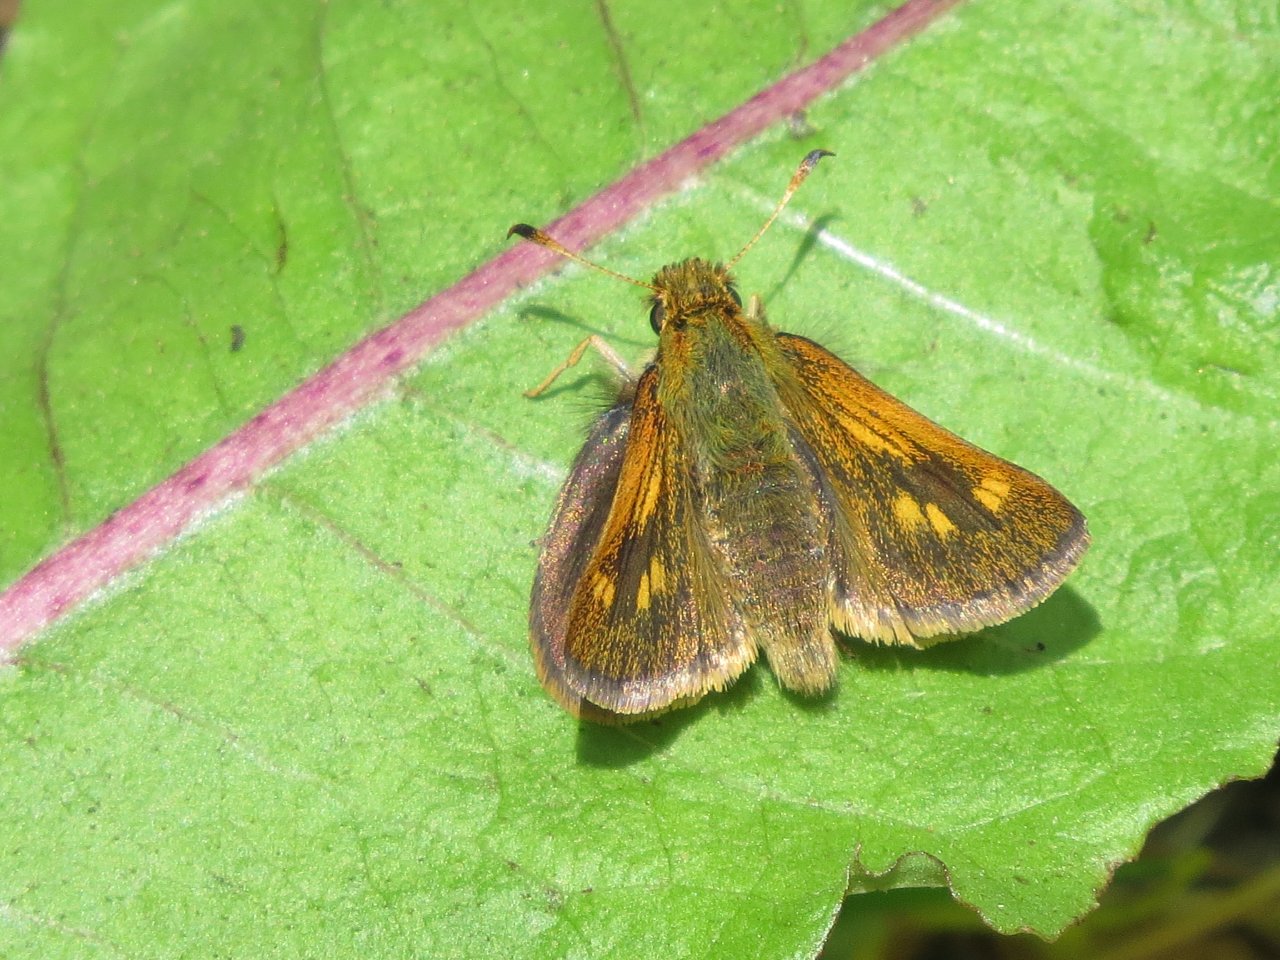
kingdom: Animalia
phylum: Arthropoda
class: Insecta
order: Lepidoptera
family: Hesperiidae
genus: Polites
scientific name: Polites coras
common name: Peck's Skipper
